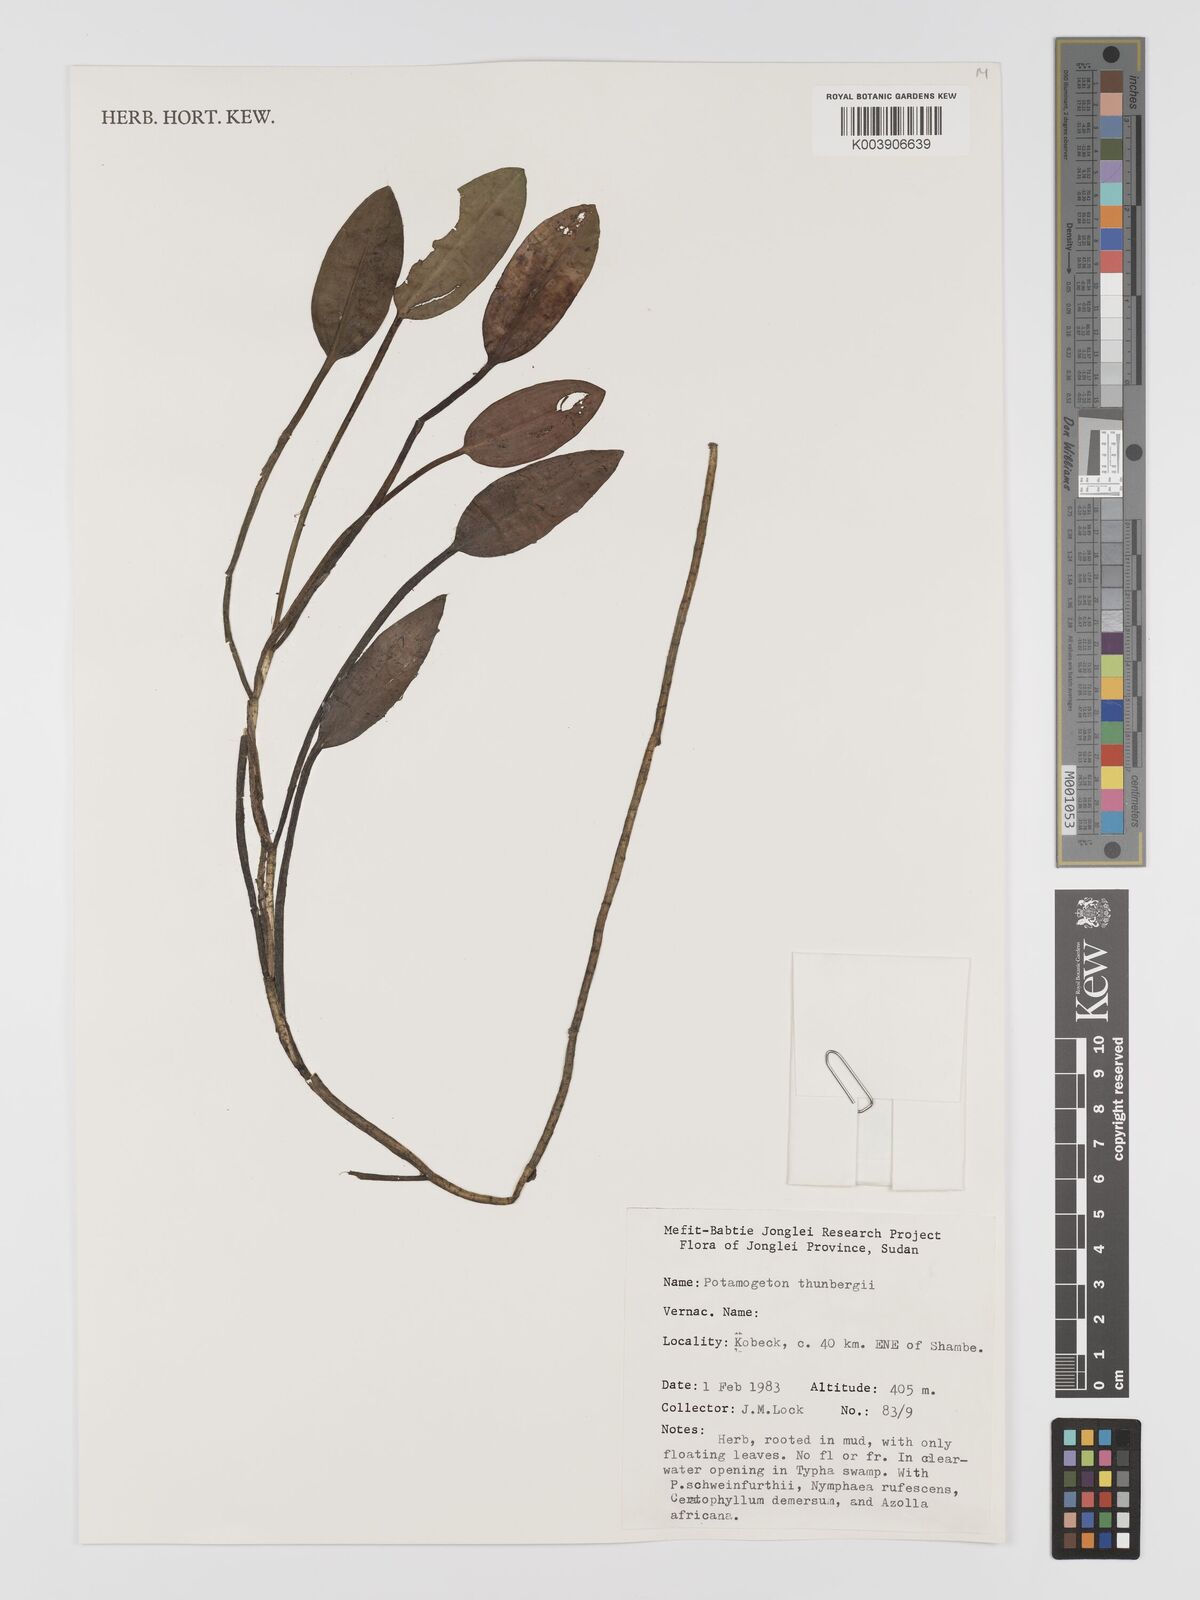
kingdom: Plantae
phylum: Tracheophyta
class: Liliopsida
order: Alismatales
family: Potamogetonaceae
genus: Potamogeton
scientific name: Potamogeton nodosus
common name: Loddon pondweed
